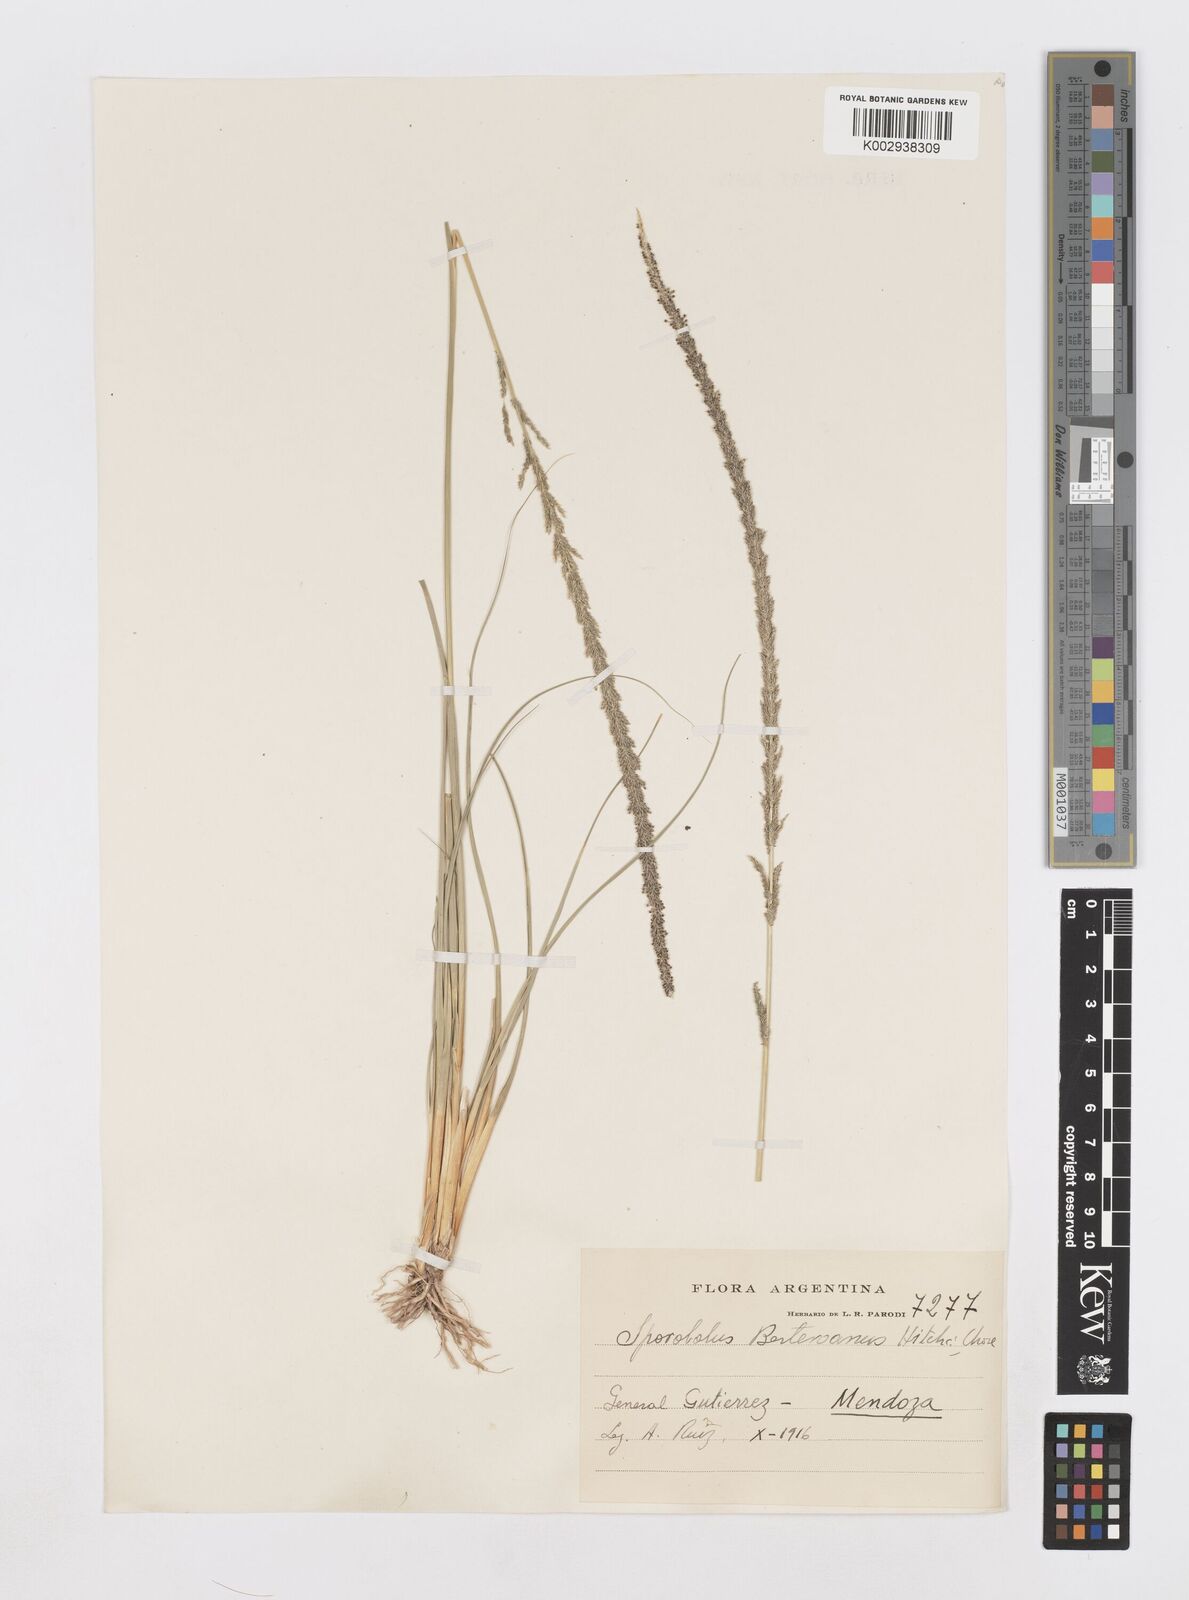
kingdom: Plantae
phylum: Tracheophyta
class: Liliopsida
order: Poales
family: Poaceae
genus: Sporobolus
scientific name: Sporobolus indicus
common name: Smut grass
